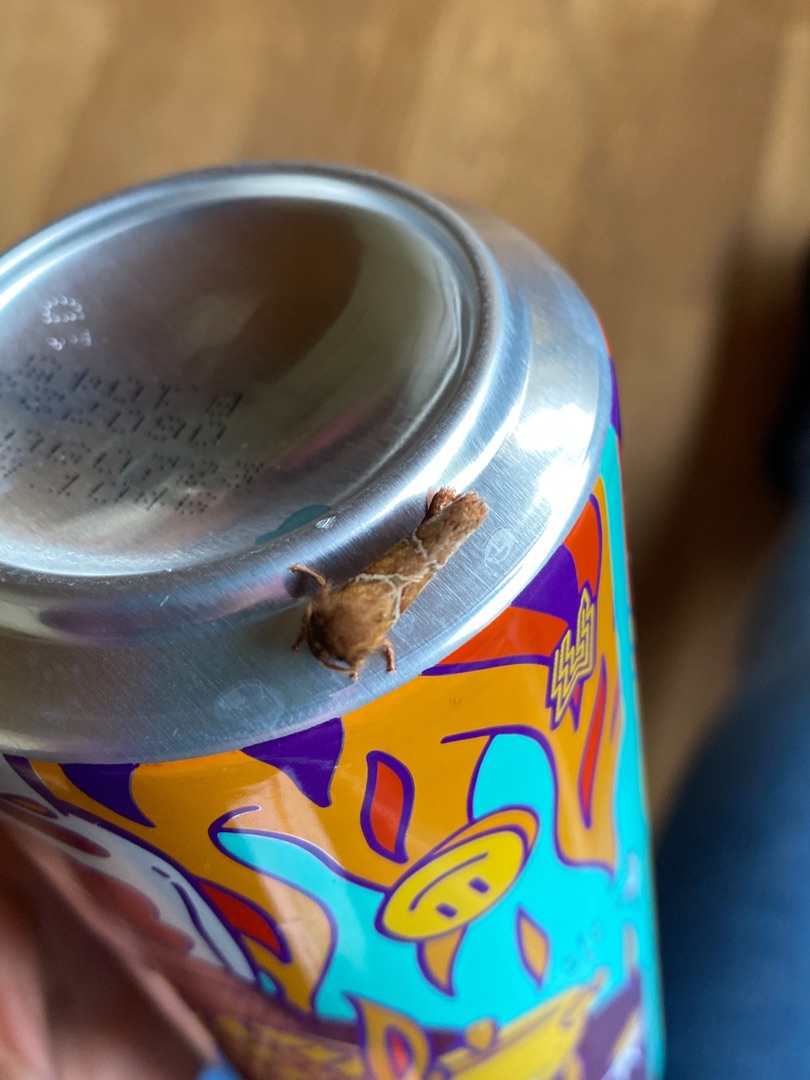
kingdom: Animalia
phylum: Arthropoda
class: Insecta
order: Lepidoptera
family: Hepialidae
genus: Triodia
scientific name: Triodia sylvina
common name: Skræpperodæder
